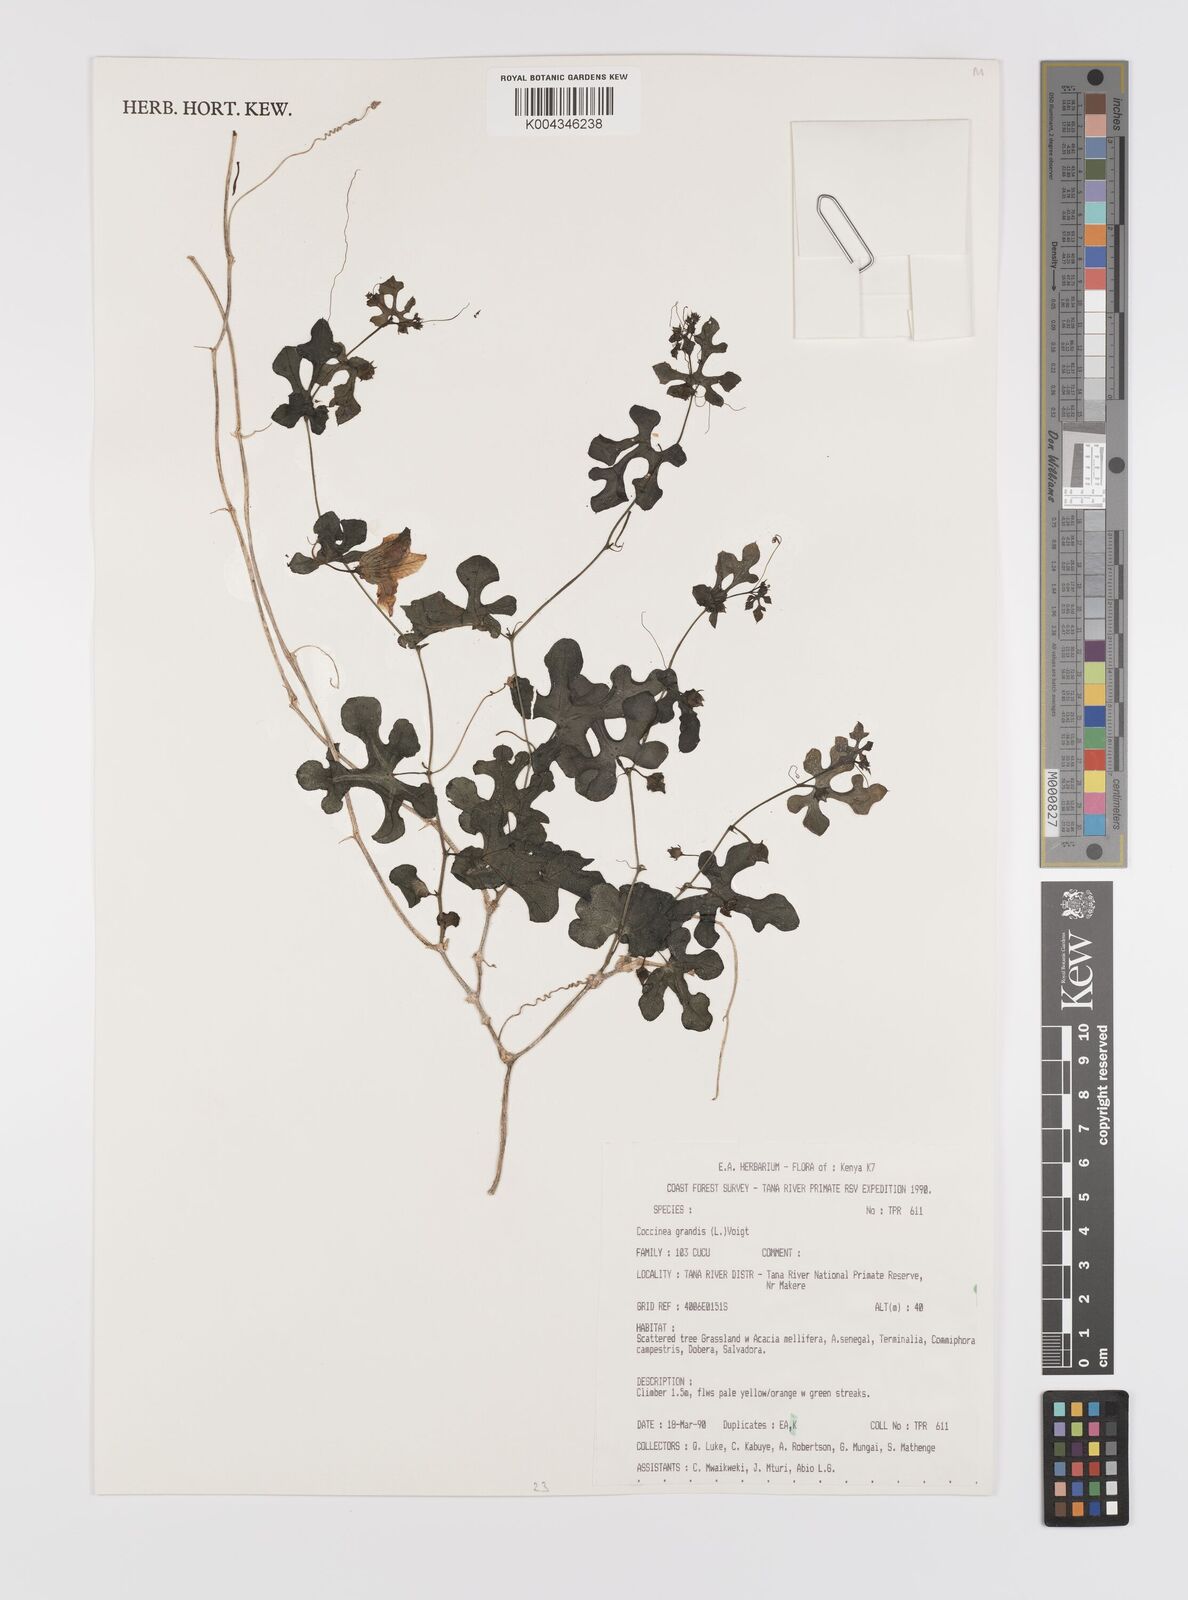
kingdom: Plantae
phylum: Tracheophyta
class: Magnoliopsida
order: Cucurbitales
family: Cucurbitaceae
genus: Coccinia
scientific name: Coccinia grandis
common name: Ivy gourd
